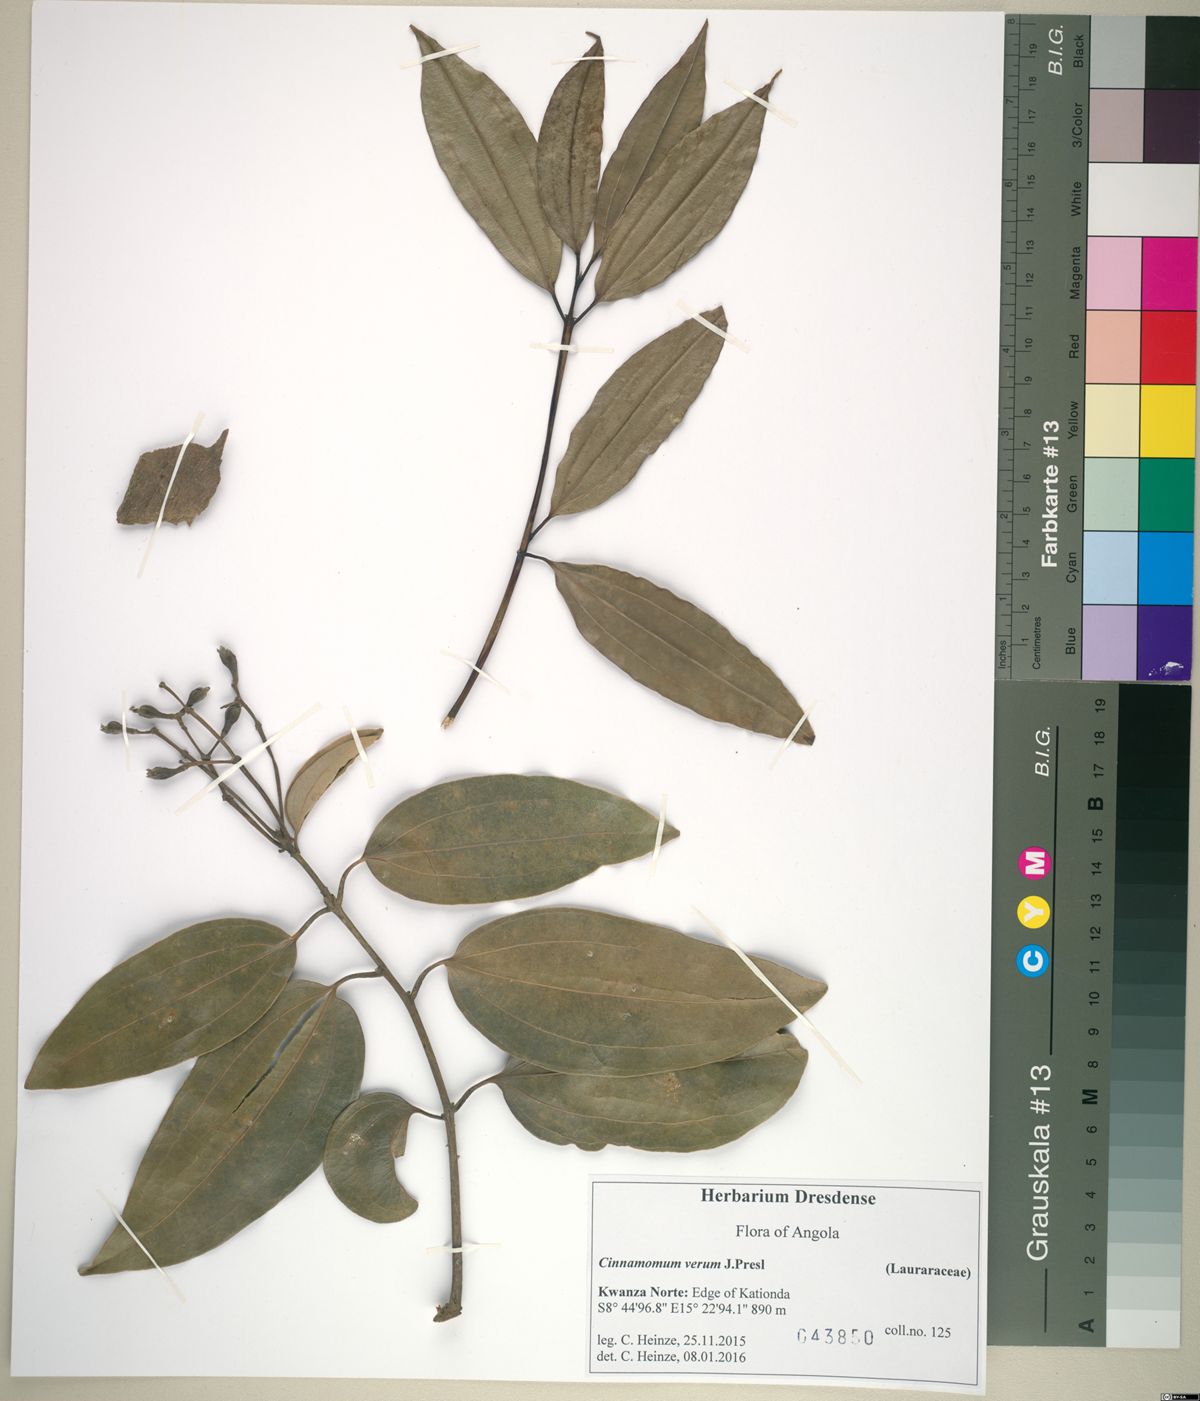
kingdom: Plantae
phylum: Tracheophyta
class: Magnoliopsida
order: Laurales
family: Lauraceae
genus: Cinnamomum
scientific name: Cinnamomum verum
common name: Cinnamon
